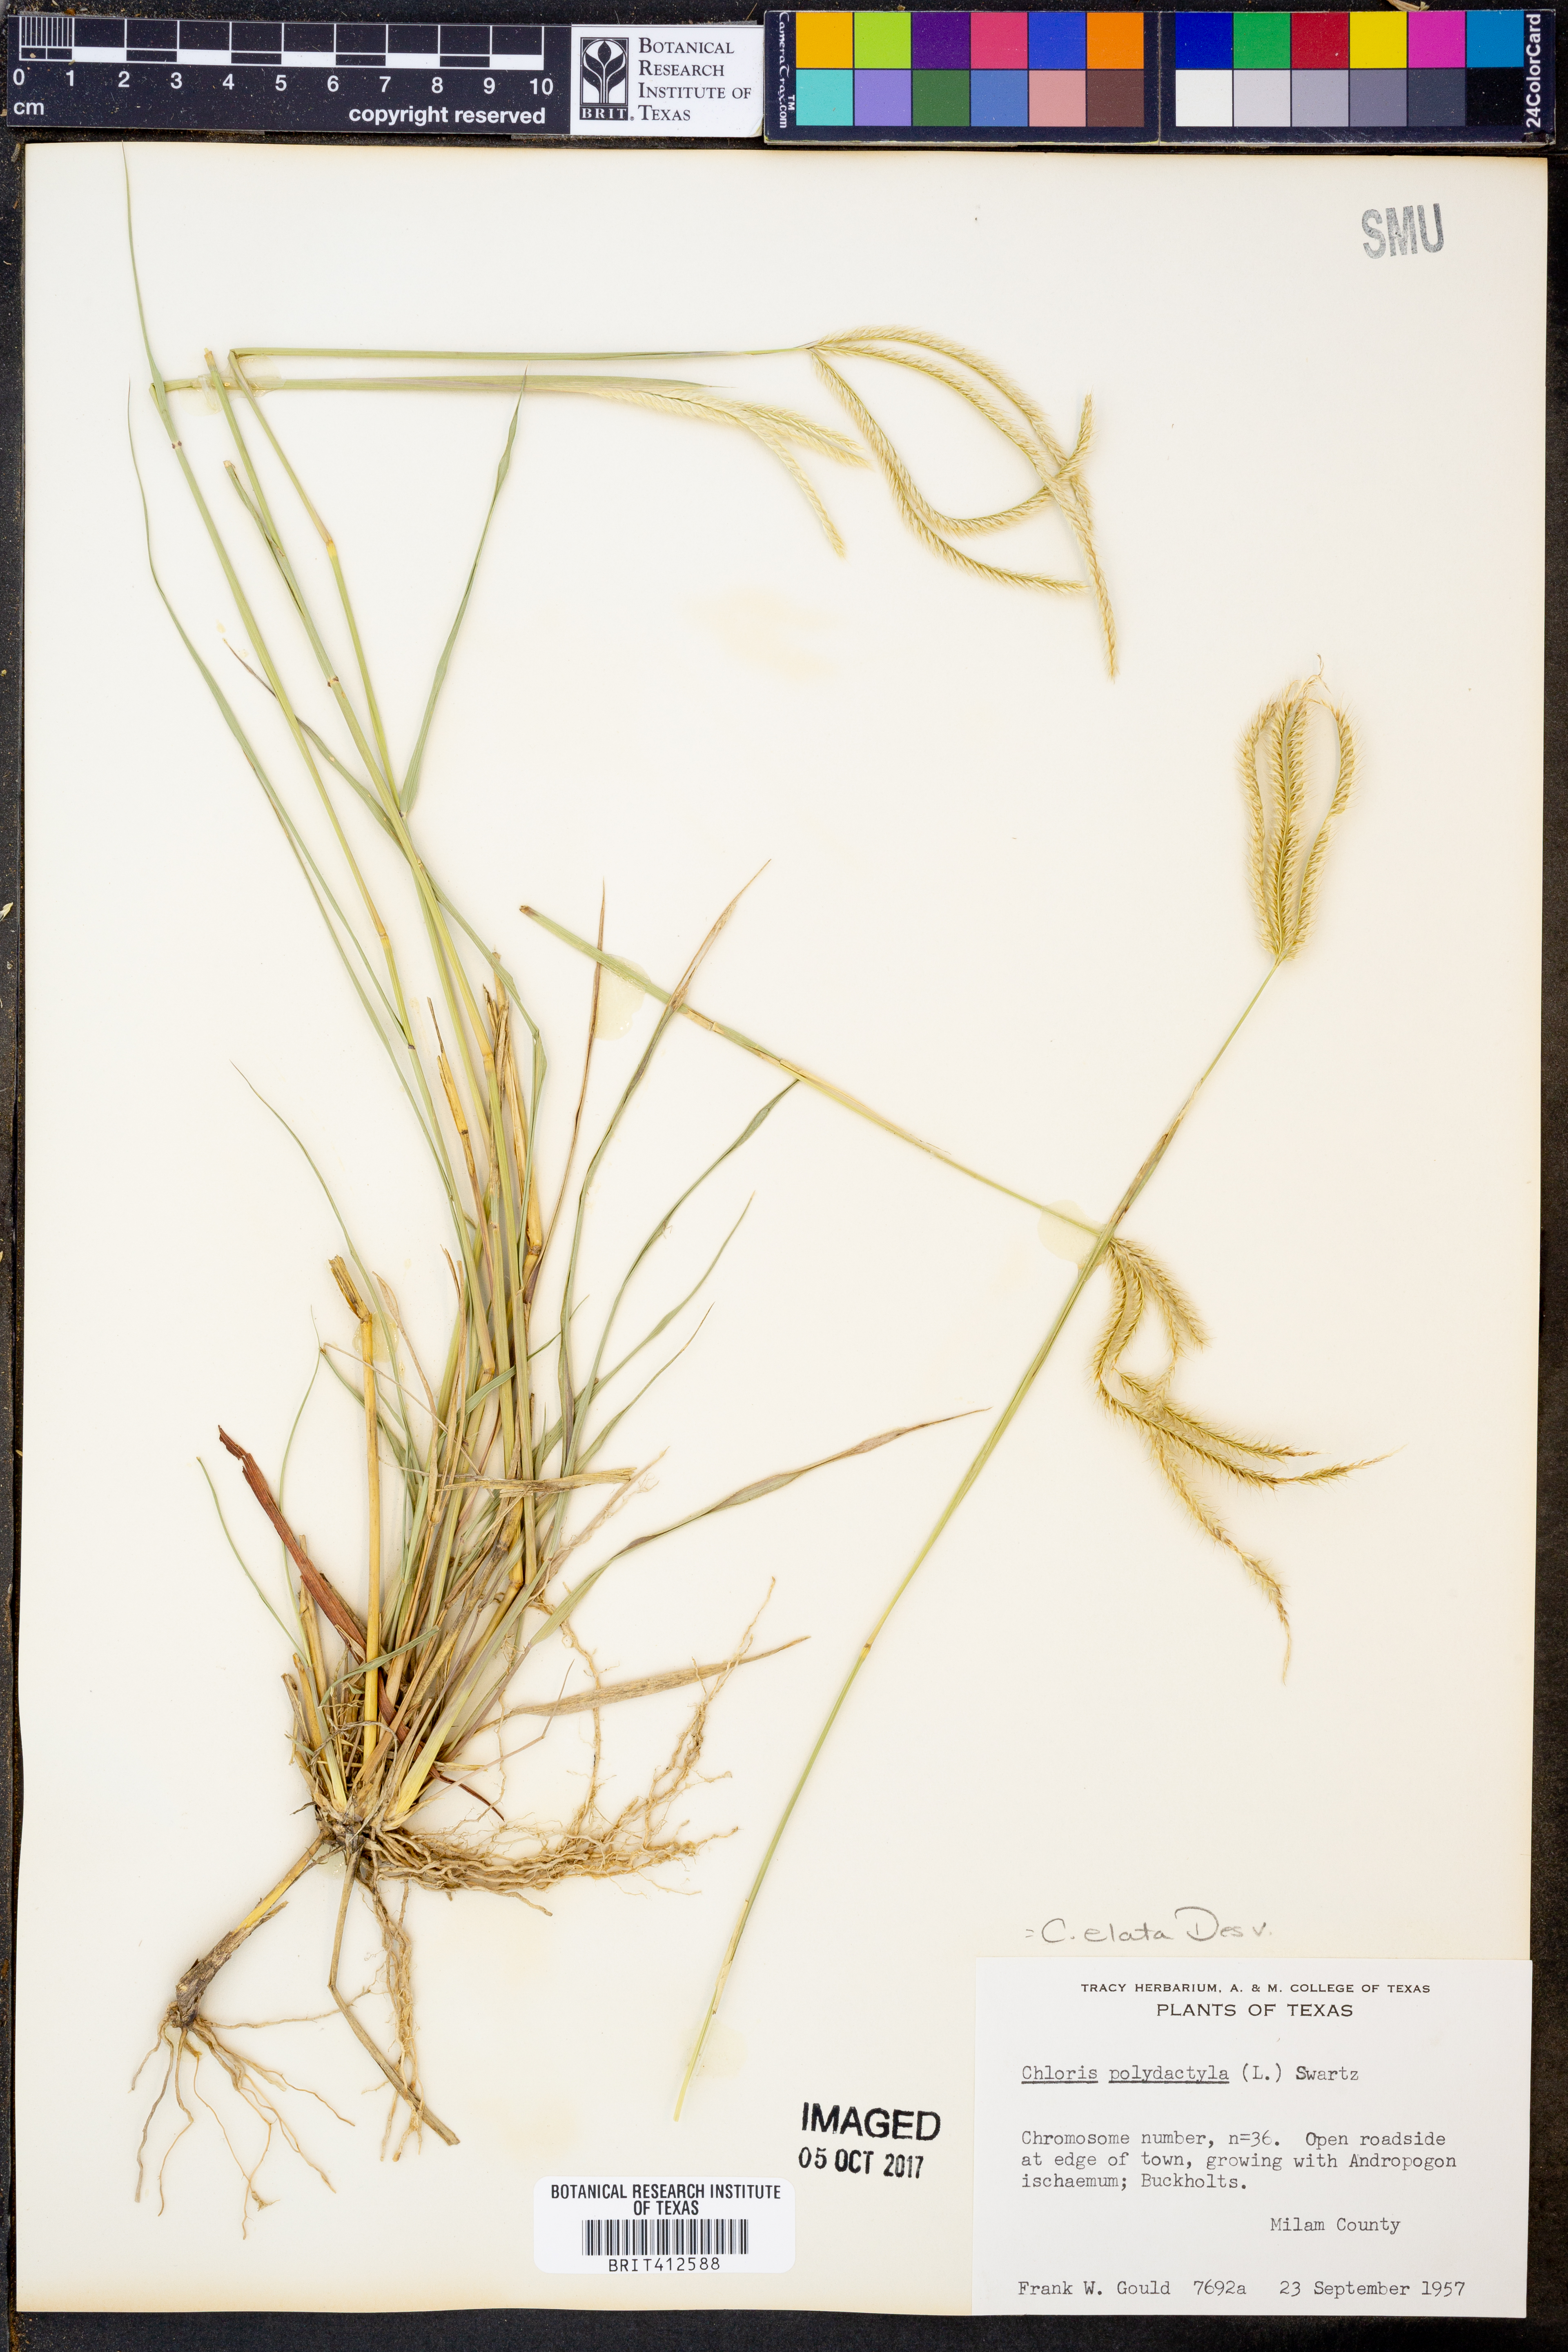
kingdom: Plantae
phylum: Tracheophyta
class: Liliopsida
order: Poales
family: Poaceae
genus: Stapfochloa
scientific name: Stapfochloa elata
